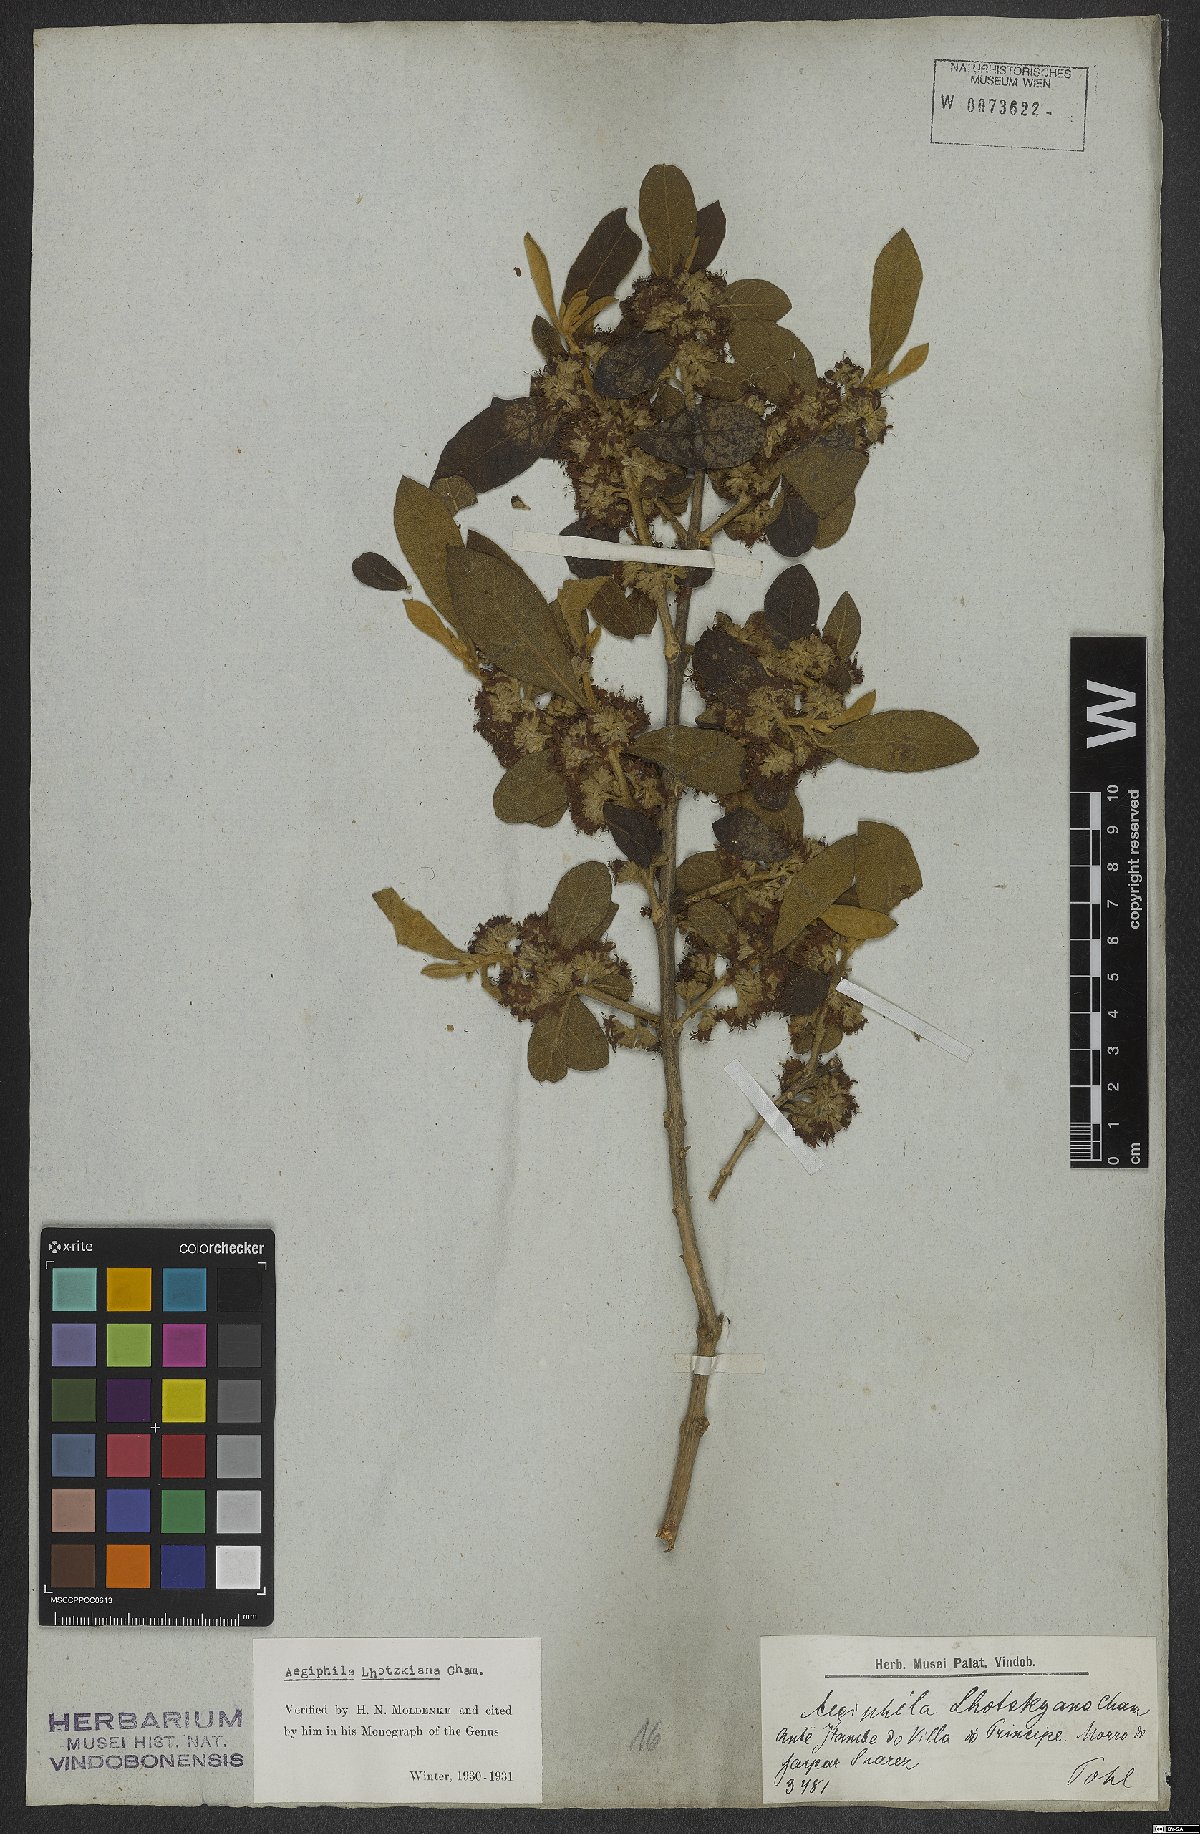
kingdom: Plantae
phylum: Tracheophyta
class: Magnoliopsida
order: Lamiales
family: Lamiaceae
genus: Aegiphila
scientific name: Aegiphila lhotskiana
